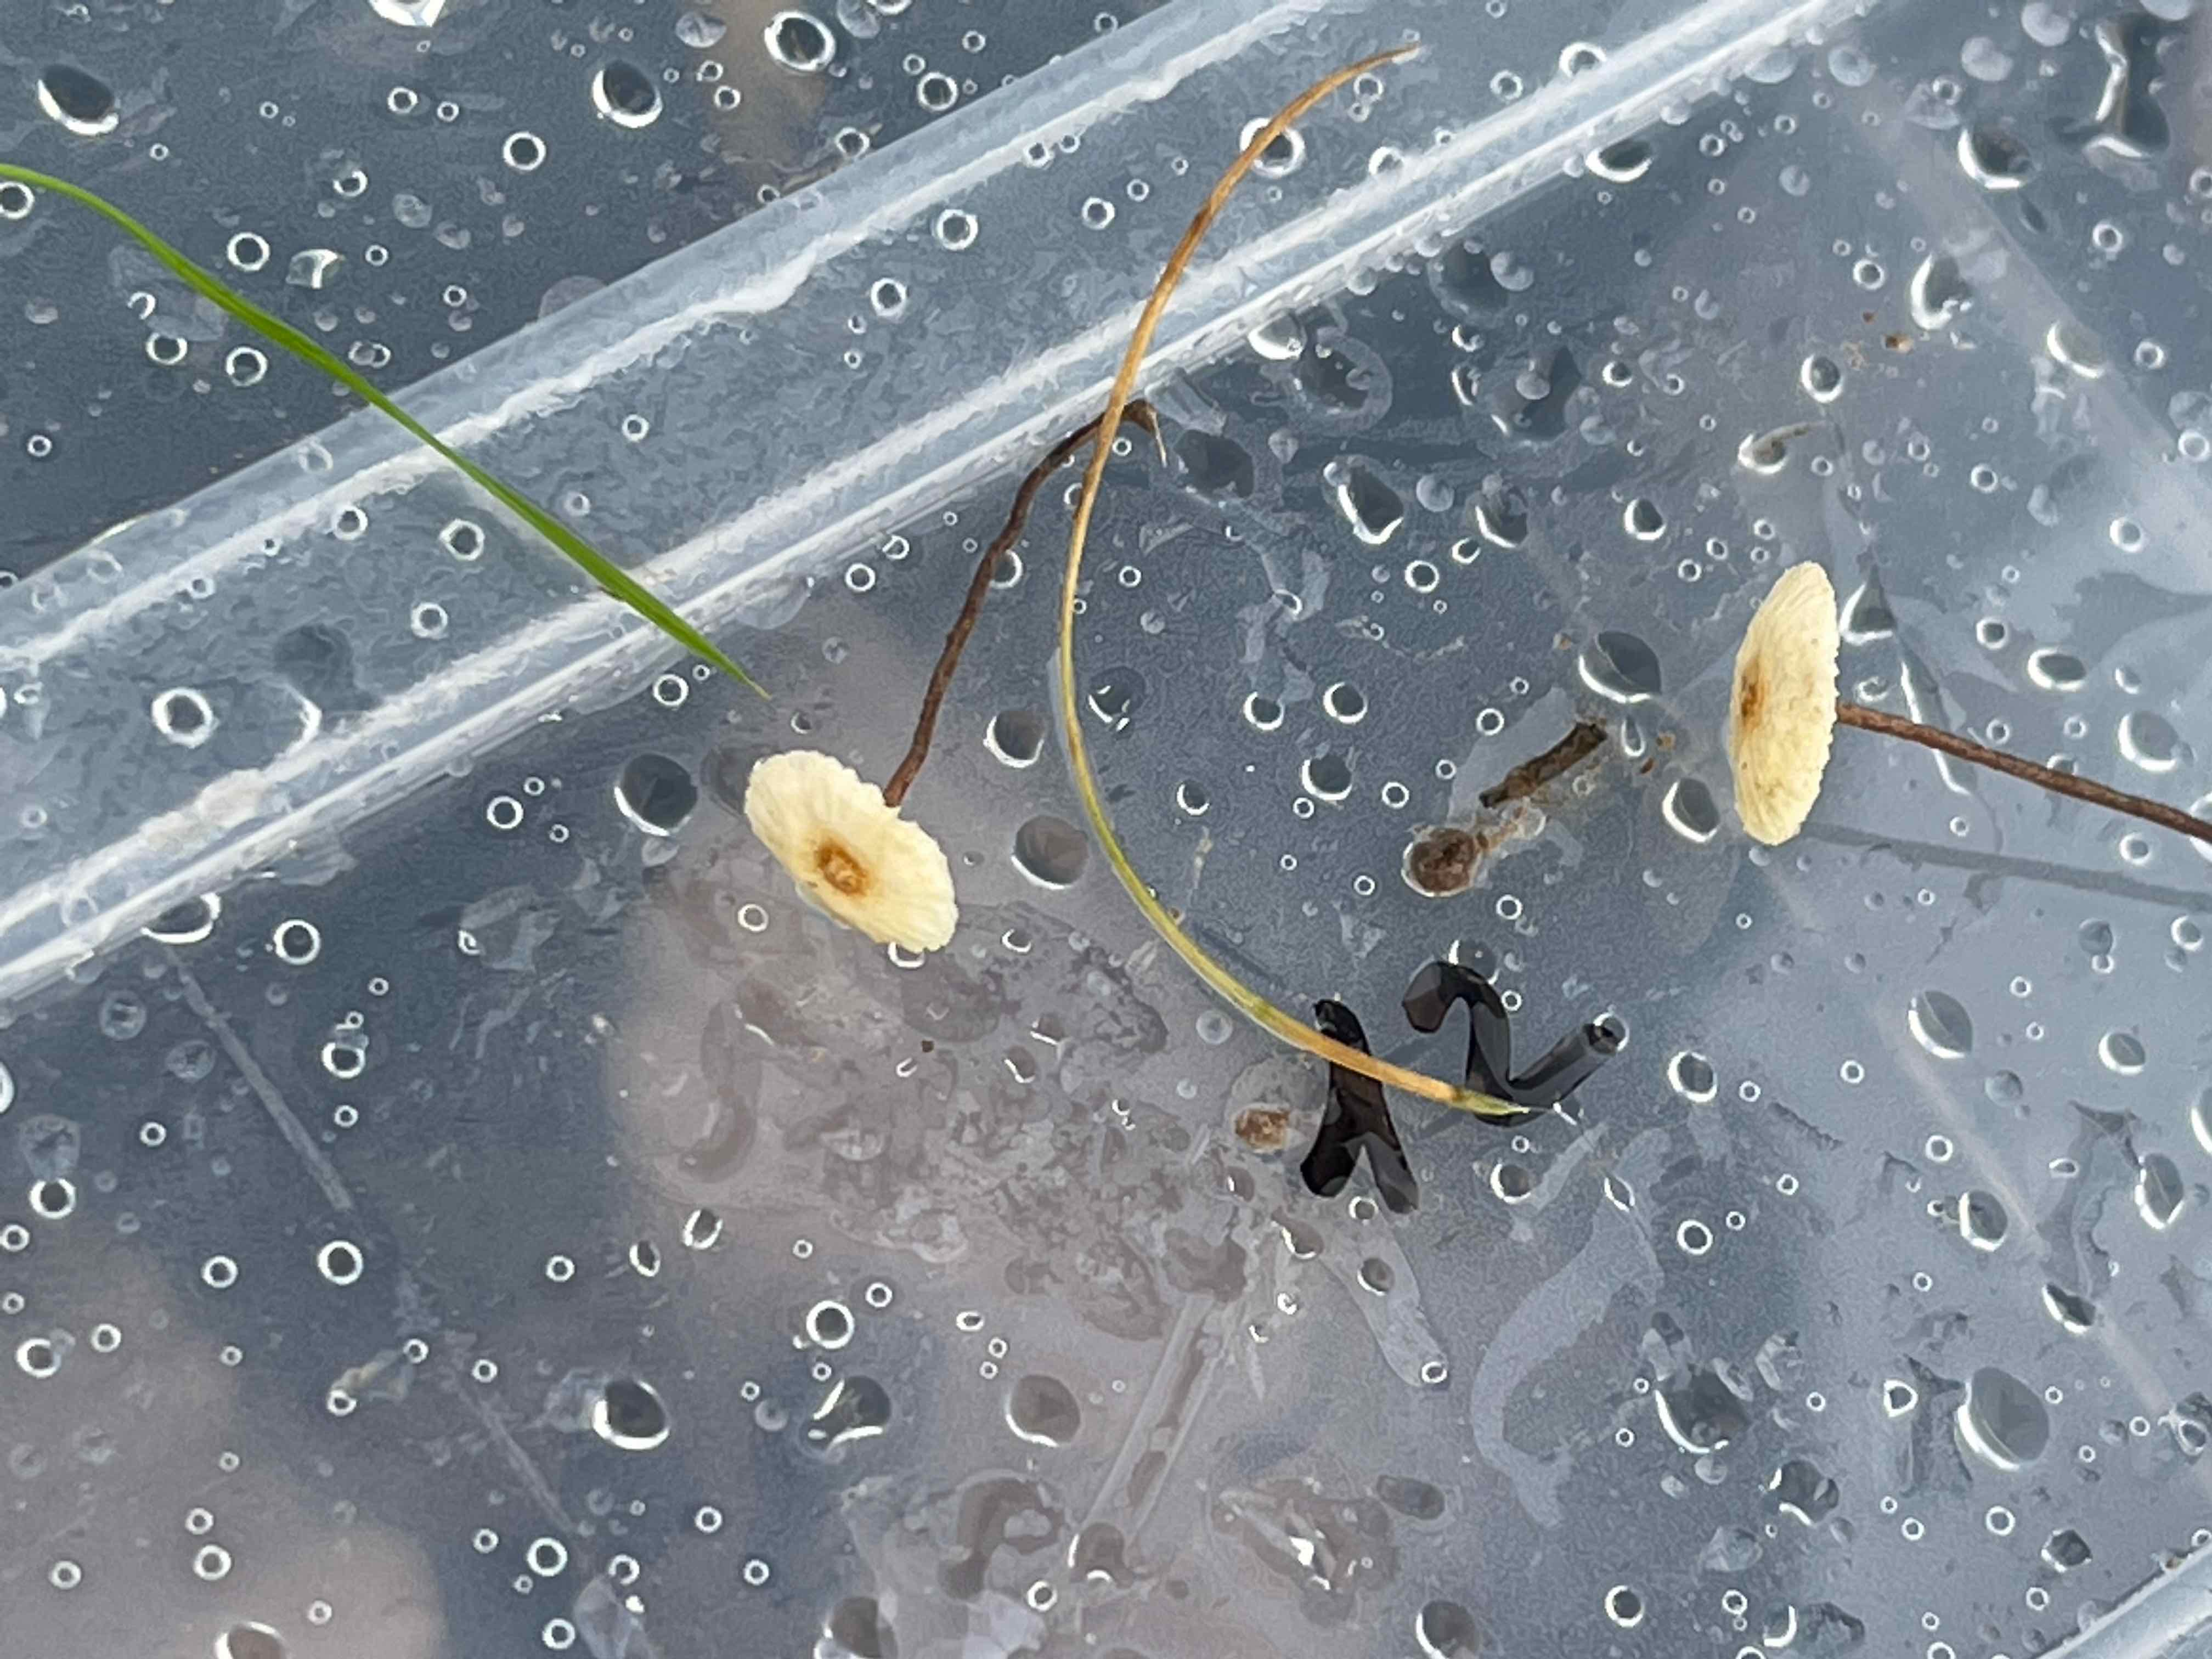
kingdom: Fungi
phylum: Basidiomycota
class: Agaricomycetes
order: Agaricales
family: Marasmiaceae
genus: Crinipellis
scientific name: Crinipellis scabella
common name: børstefod
